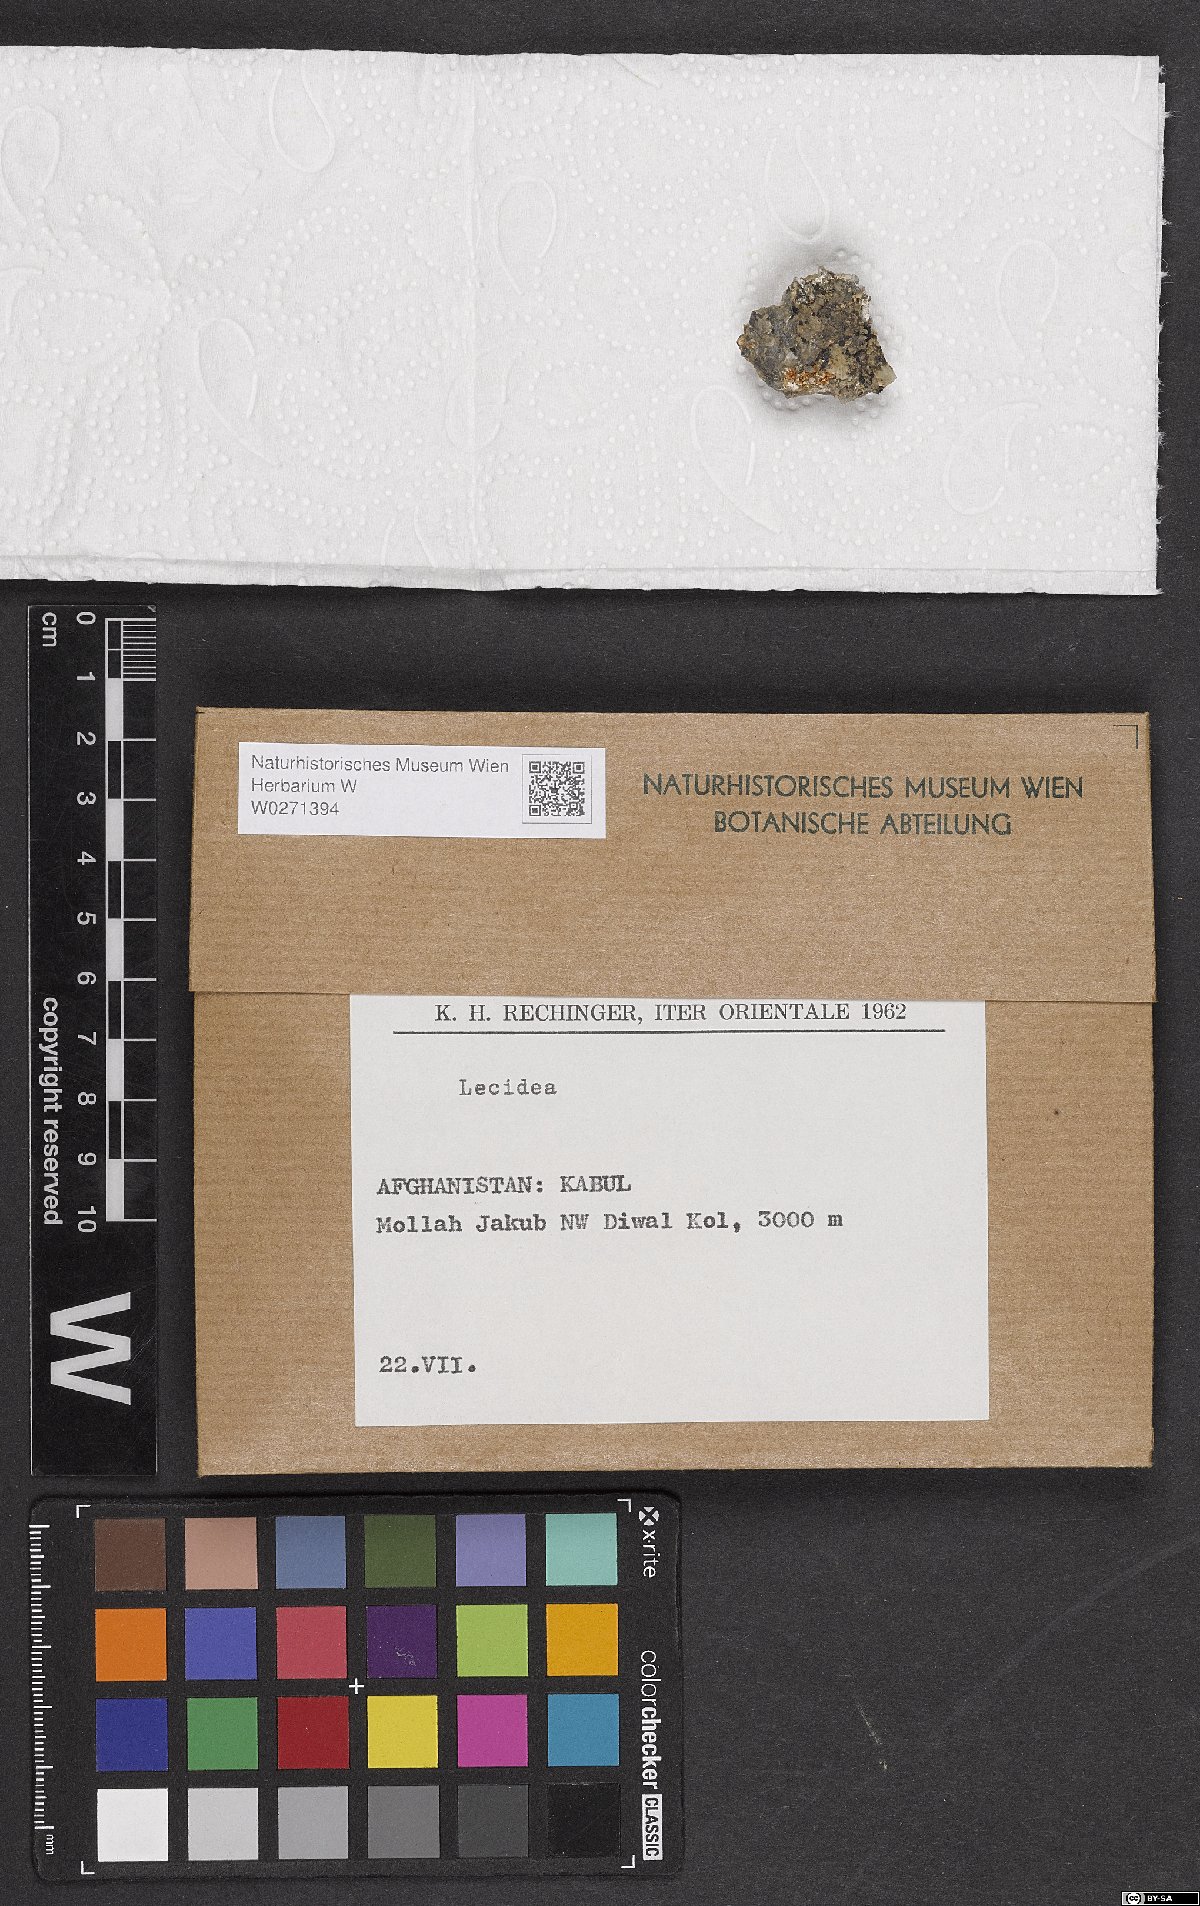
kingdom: Fungi
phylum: Ascomycota
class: Lecanoromycetes
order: Lecideales
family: Lecideaceae
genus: Lecidea
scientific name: Lecidea
